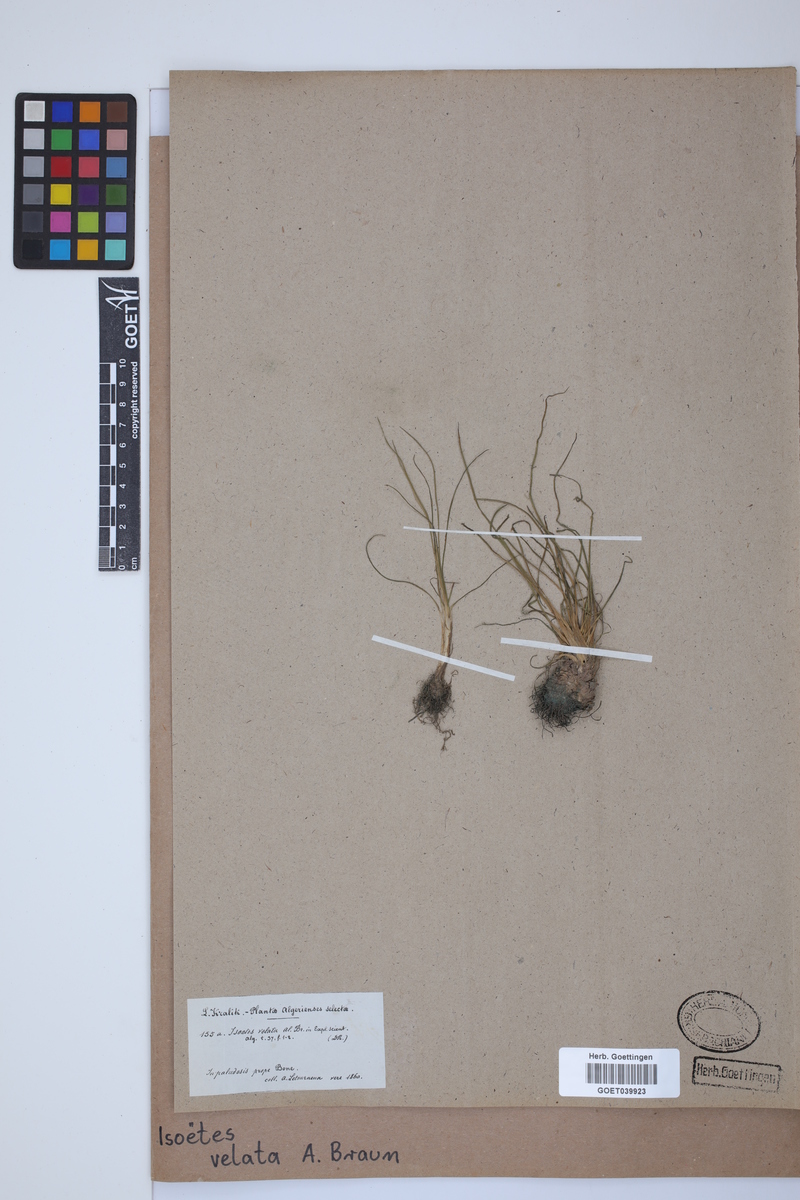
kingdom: Plantae
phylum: Tracheophyta
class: Lycopodiopsida
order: Isoetales
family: Isoetaceae
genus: Isoetes
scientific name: Isoetes longissima
